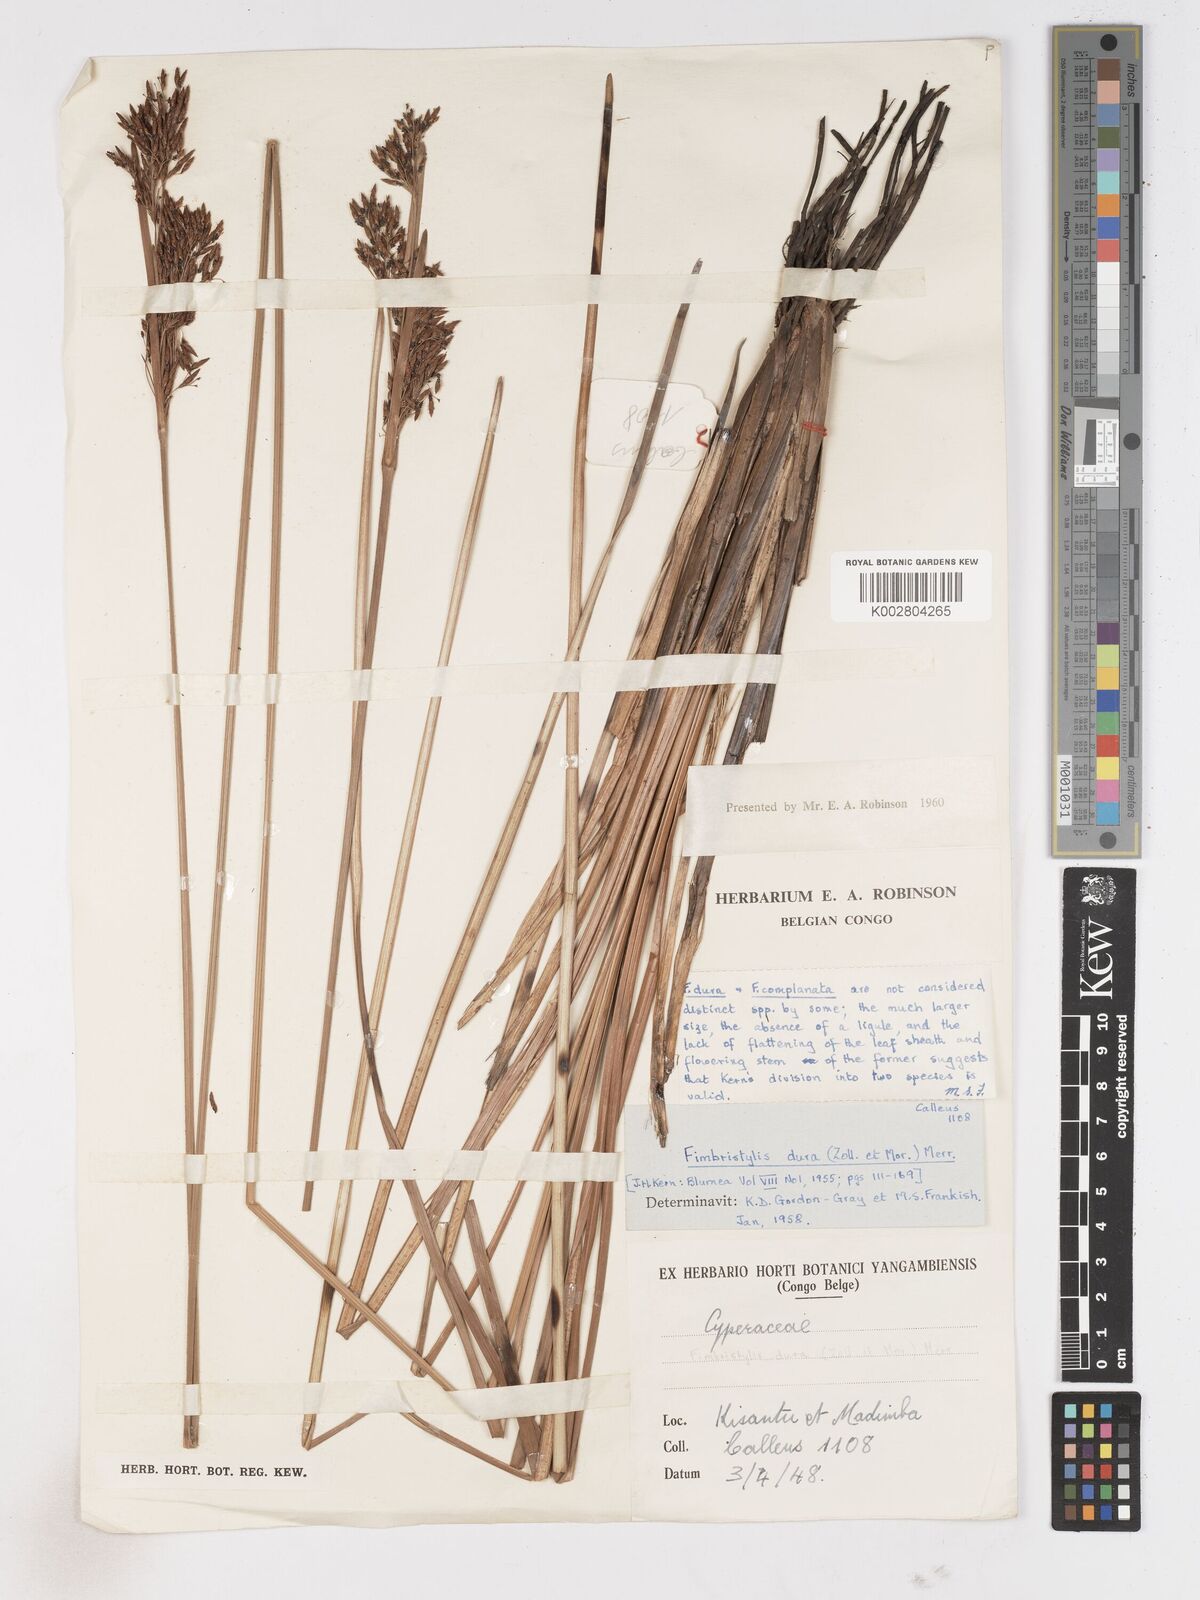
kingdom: Plantae
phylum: Tracheophyta
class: Liliopsida
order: Poales
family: Cyperaceae
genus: Fimbristylis
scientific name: Fimbristylis dura
